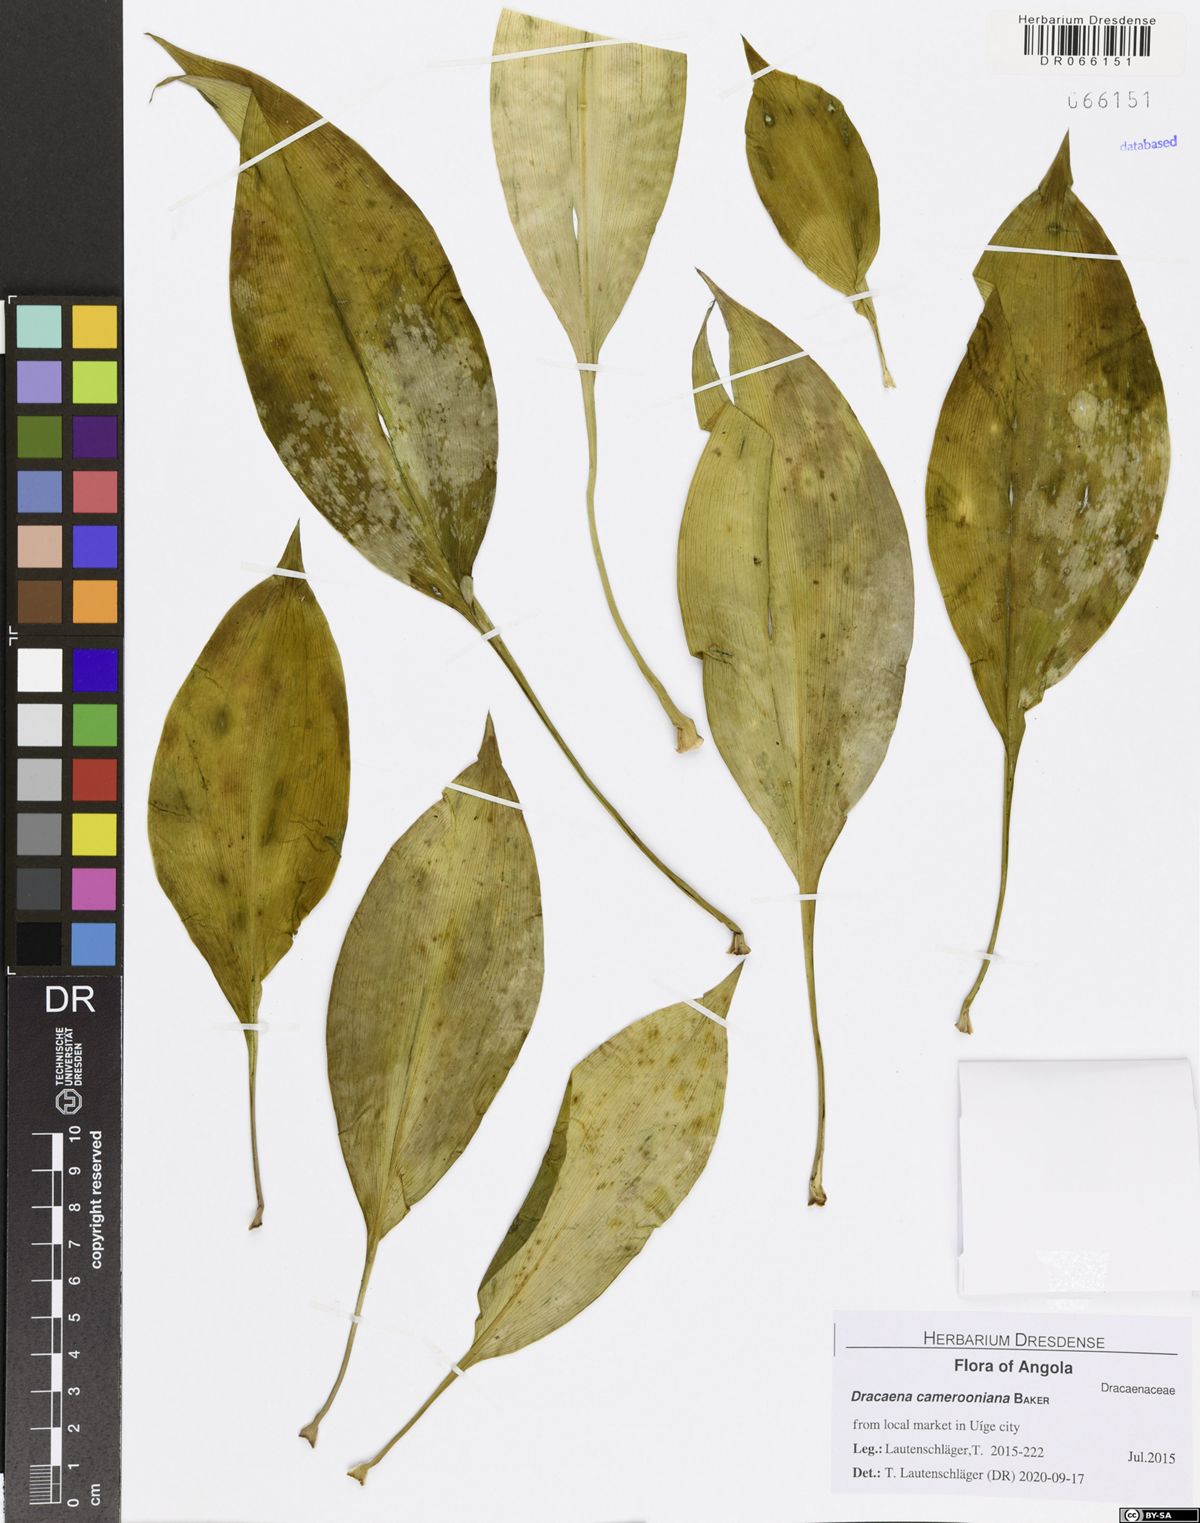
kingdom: Plantae
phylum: Tracheophyta
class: Liliopsida
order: Asparagales
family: Asparagaceae
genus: Dracaena
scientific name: Dracaena camerooniana
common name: Dragon tree
